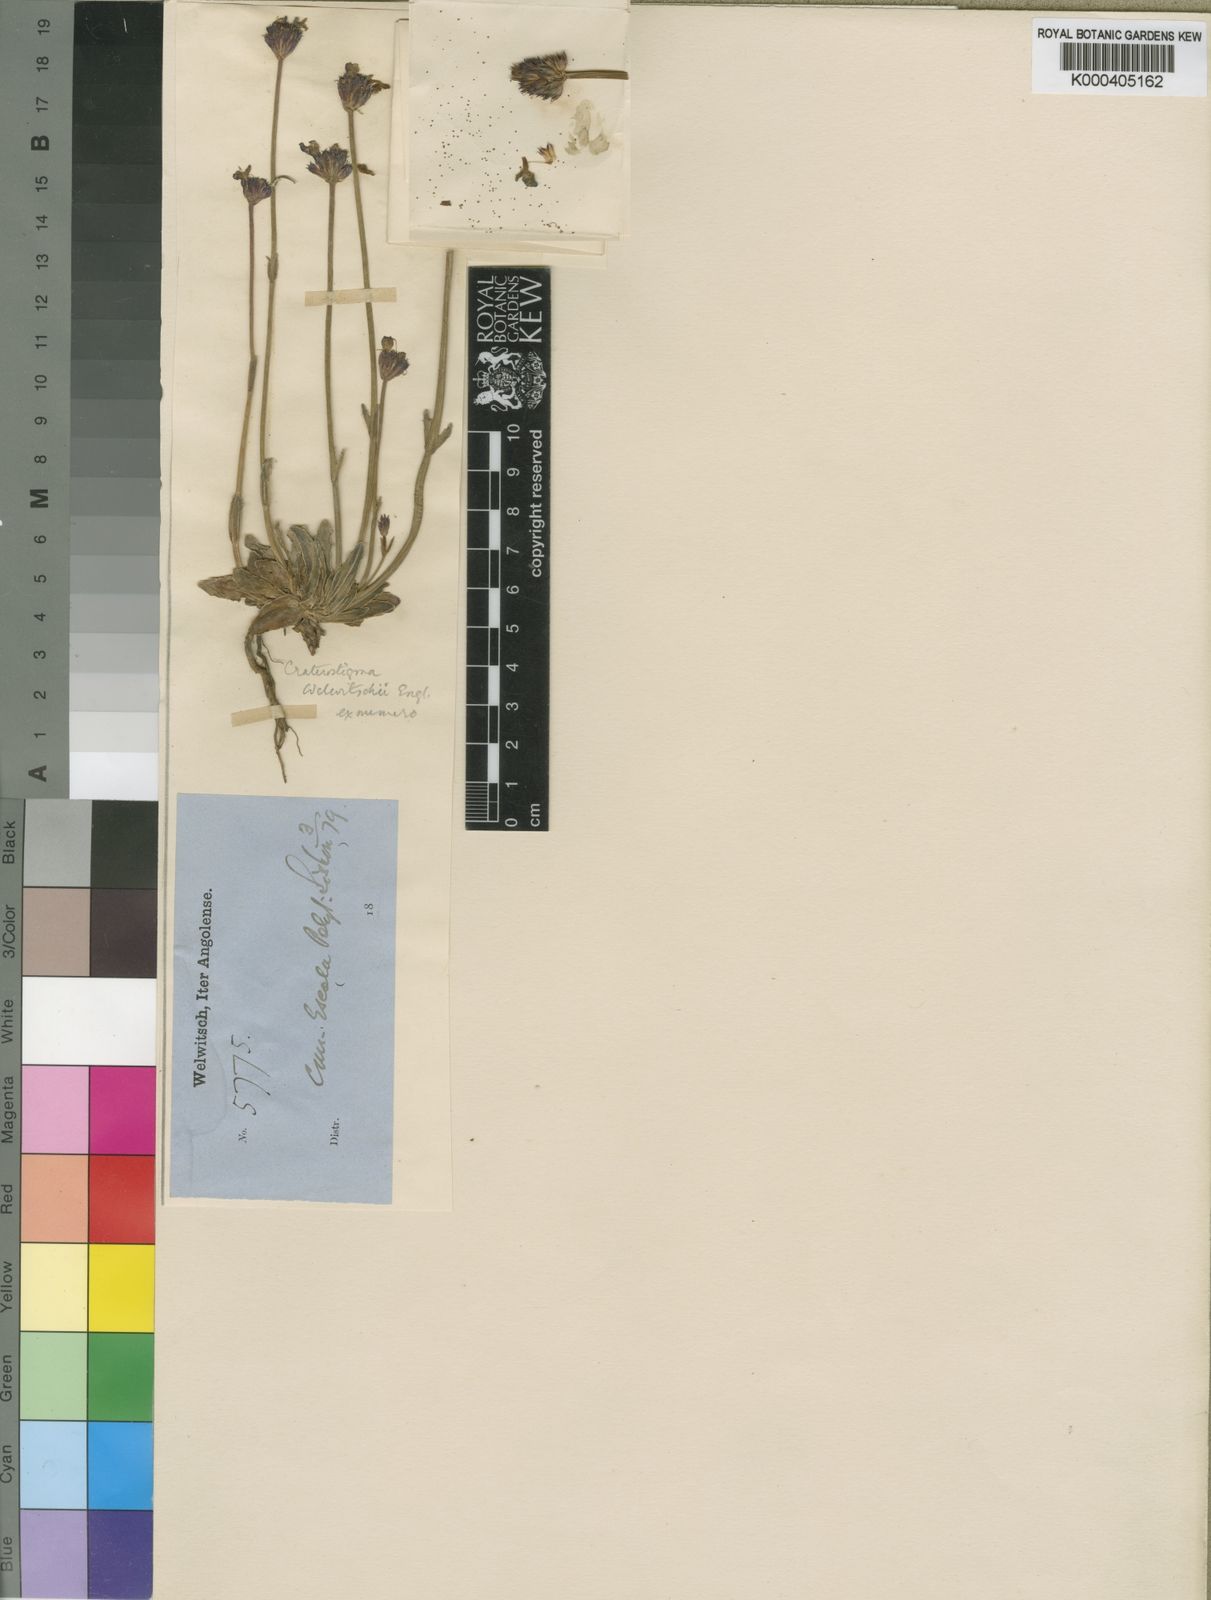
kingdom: Plantae
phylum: Tracheophyta
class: Magnoliopsida
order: Lamiales
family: Linderniaceae
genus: Crepidorhopalon
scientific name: Crepidorhopalon welwitschii
